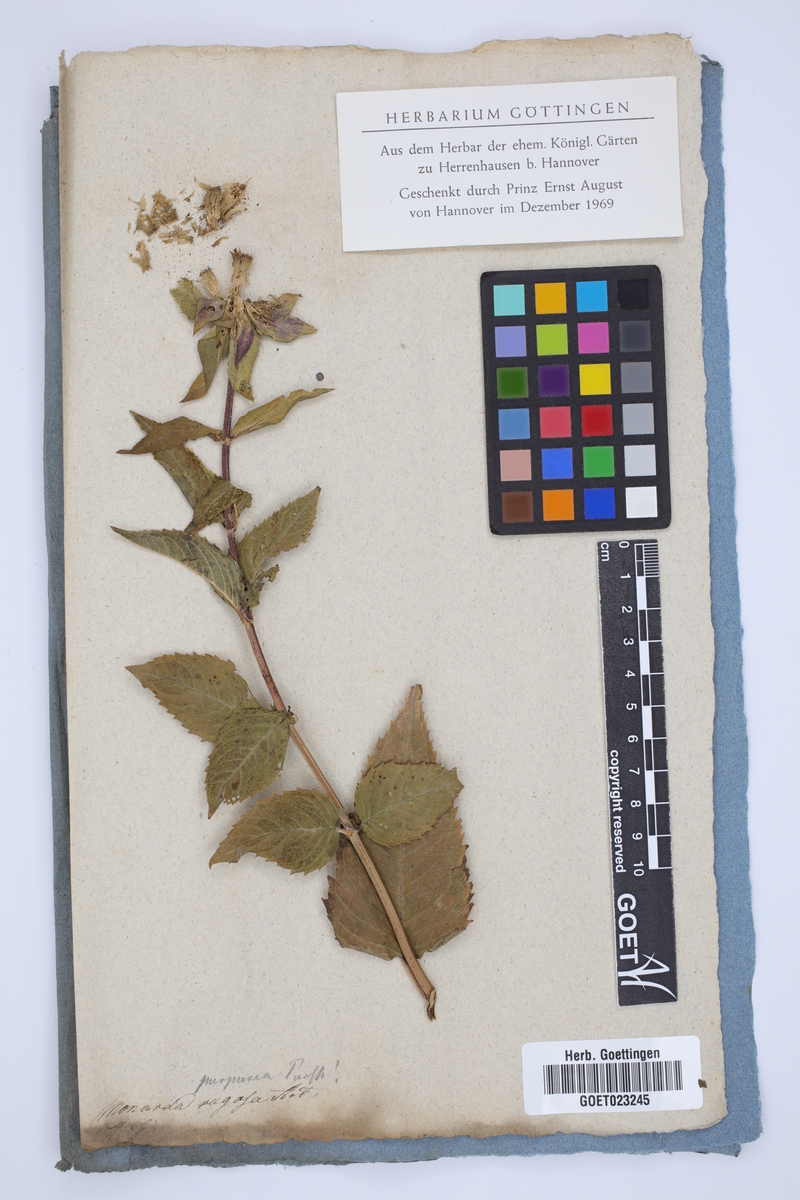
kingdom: Plantae
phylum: Tracheophyta
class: Magnoliopsida
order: Lamiales
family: Lamiaceae
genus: Monarda
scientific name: Monarda clinopodia
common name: Basil beebalm
